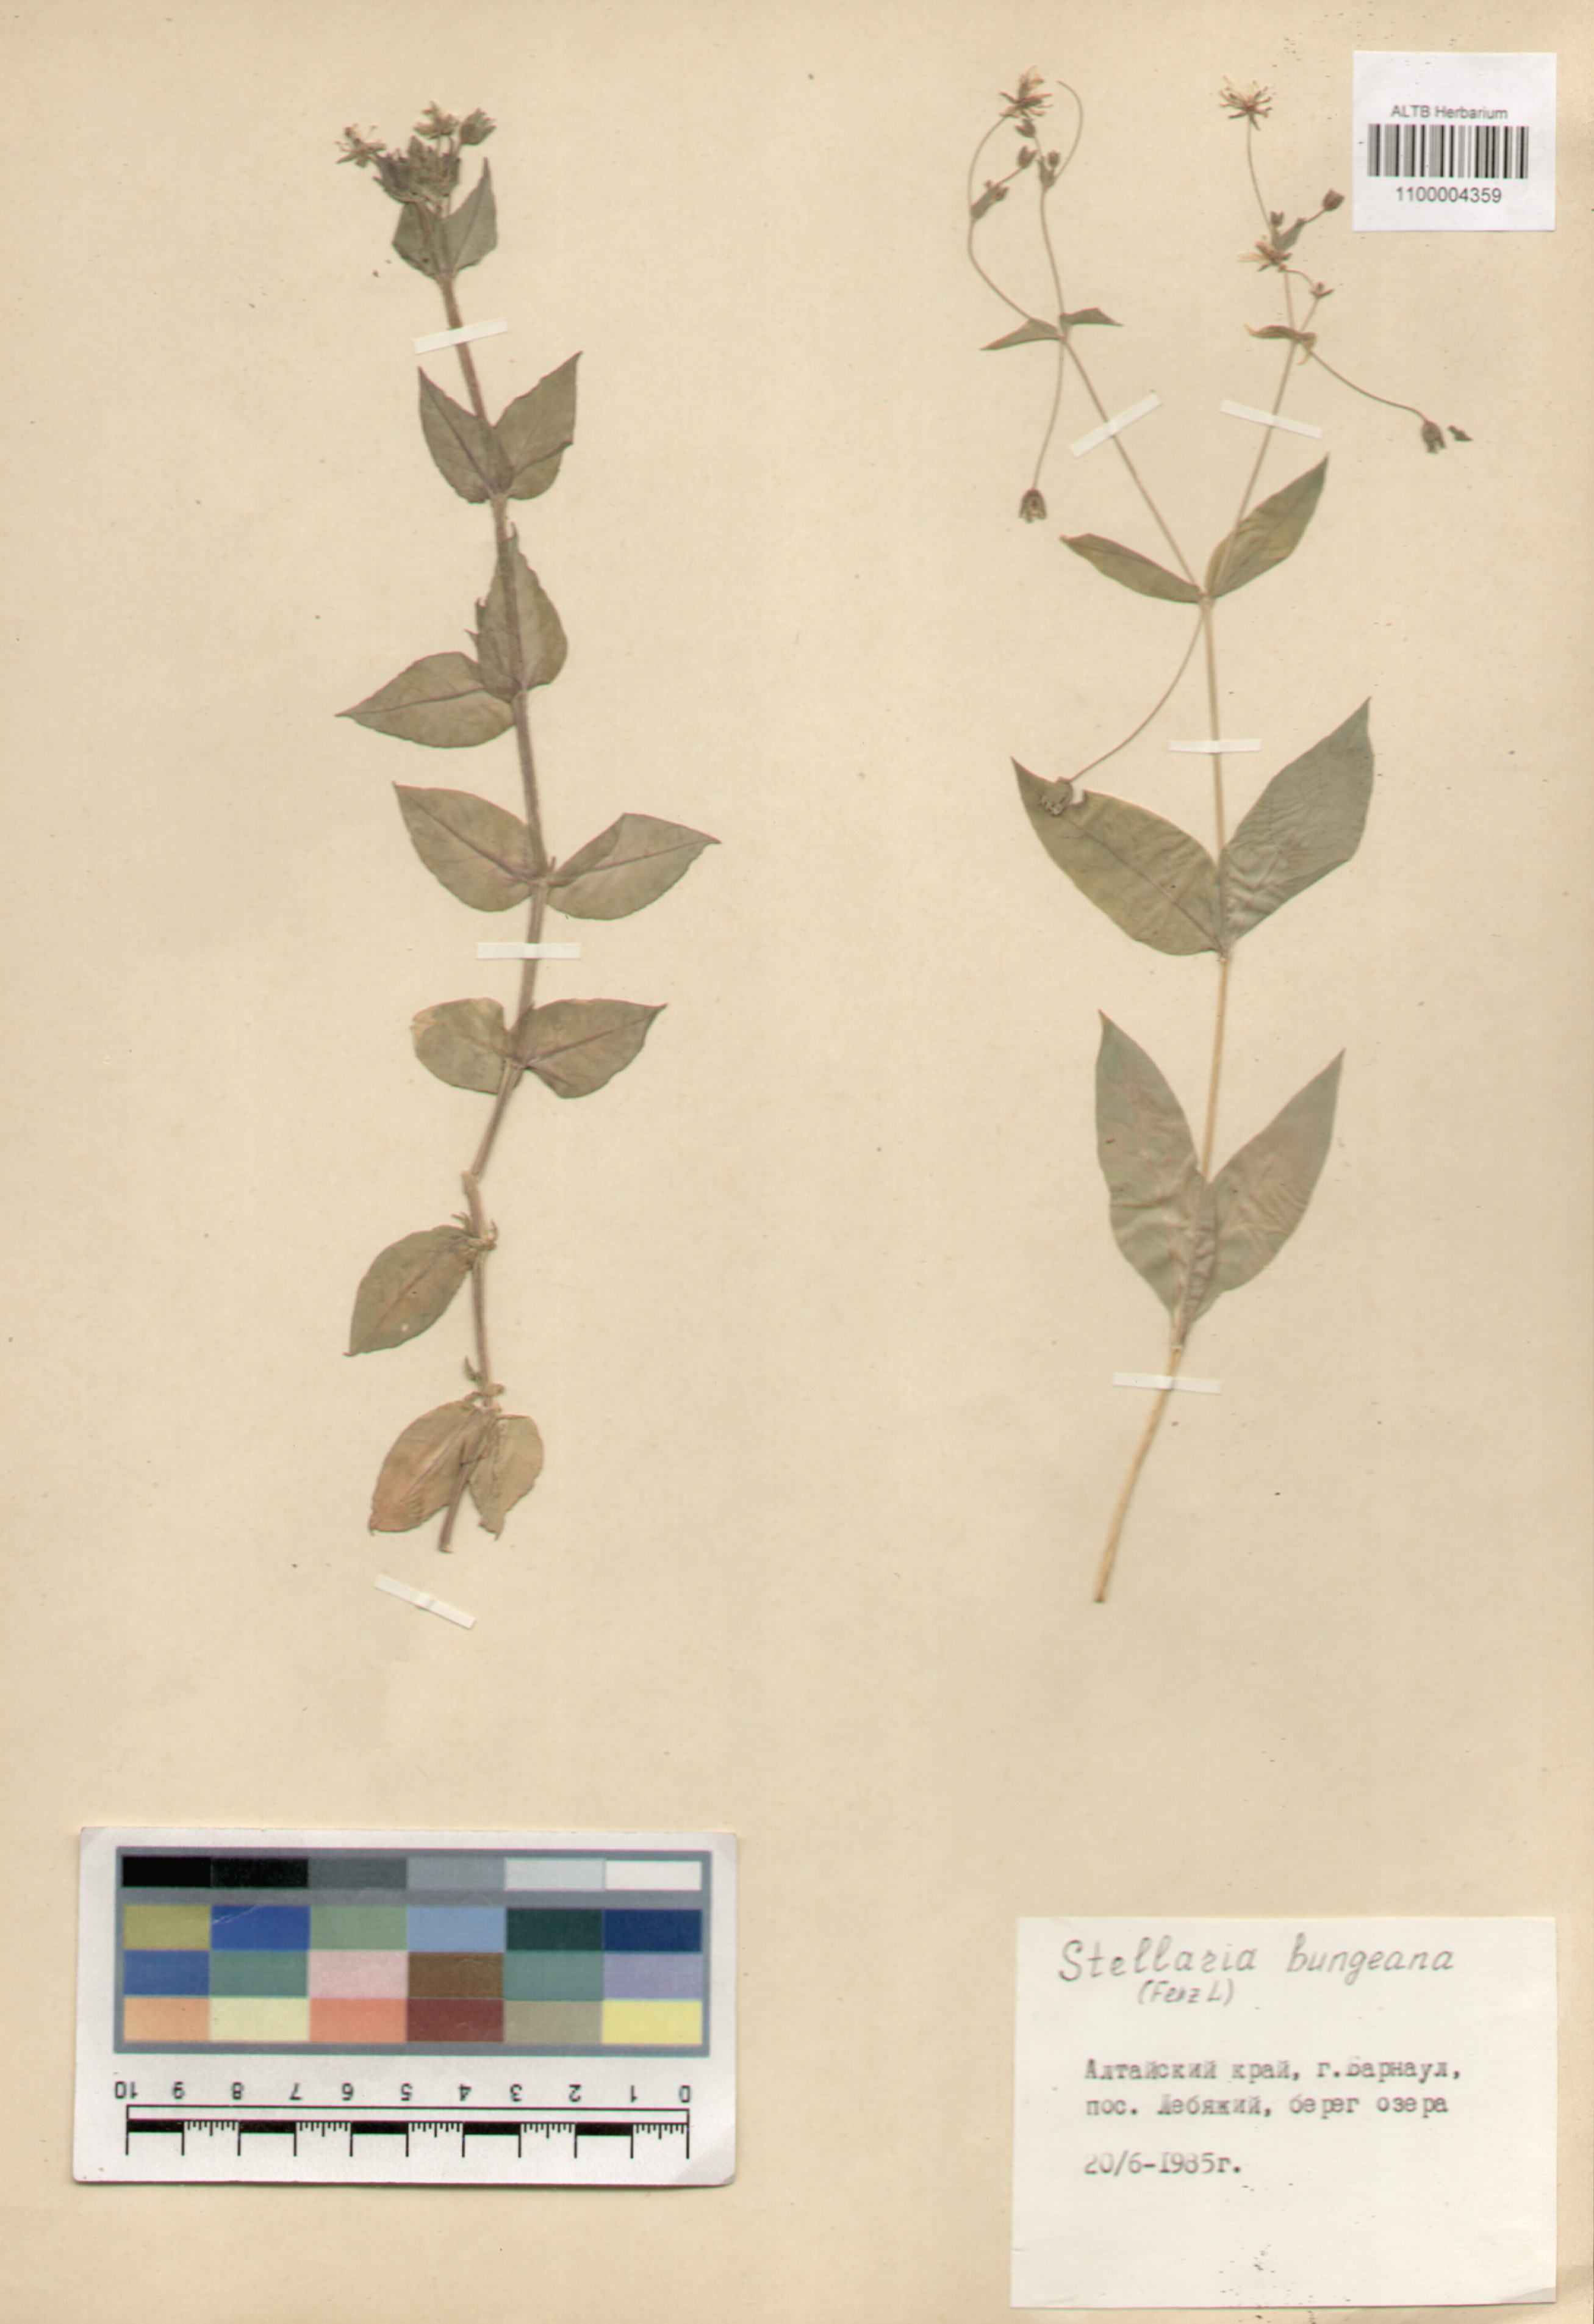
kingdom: Plantae
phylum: Tracheophyta
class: Magnoliopsida
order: Caryophyllales
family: Caryophyllaceae
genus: Stellaria
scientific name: Stellaria bungeana
